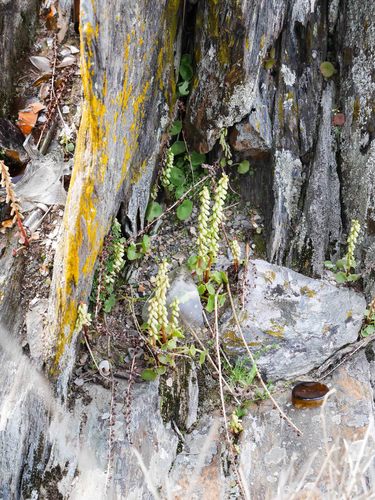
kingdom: Plantae
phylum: Tracheophyta
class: Magnoliopsida
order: Saxifragales
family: Crassulaceae
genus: Umbilicus
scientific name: Umbilicus rupestris
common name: Navelwort
